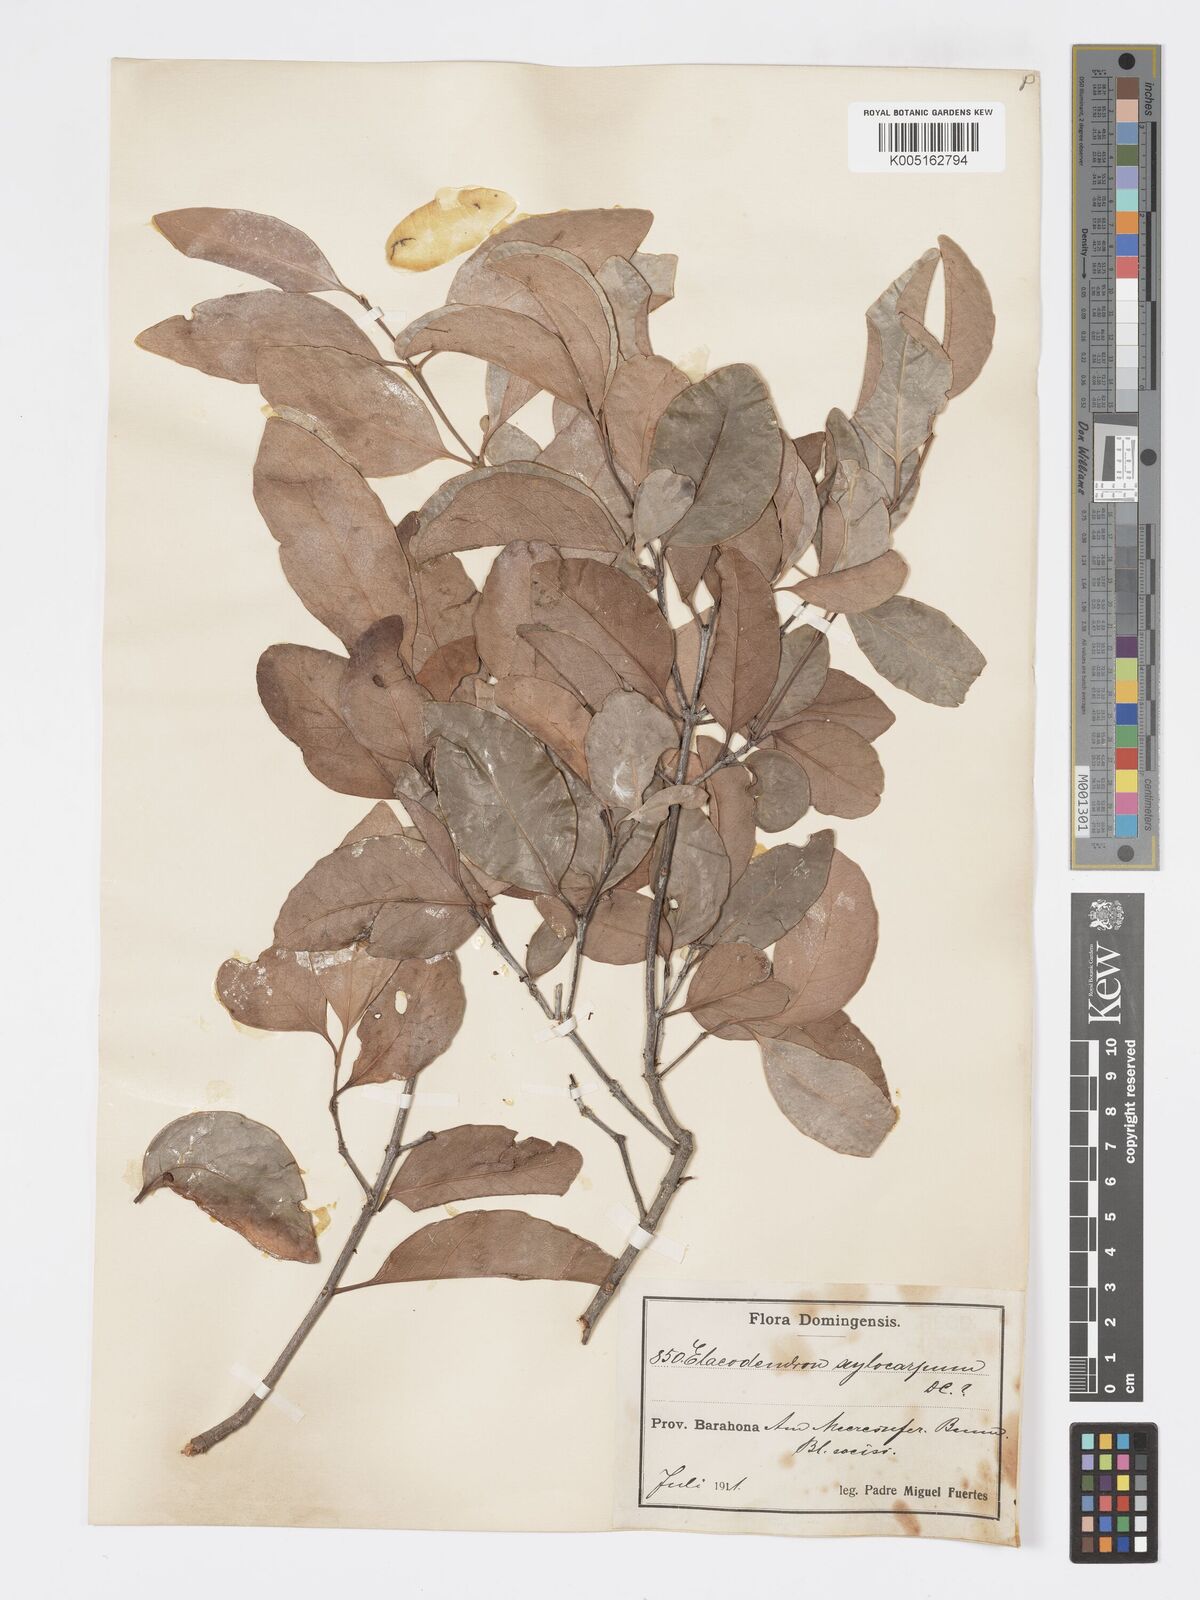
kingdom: Plantae
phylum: Tracheophyta
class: Magnoliopsida
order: Celastrales
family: Celastraceae
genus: Elaeodendron
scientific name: Elaeodendron xylocarpum
